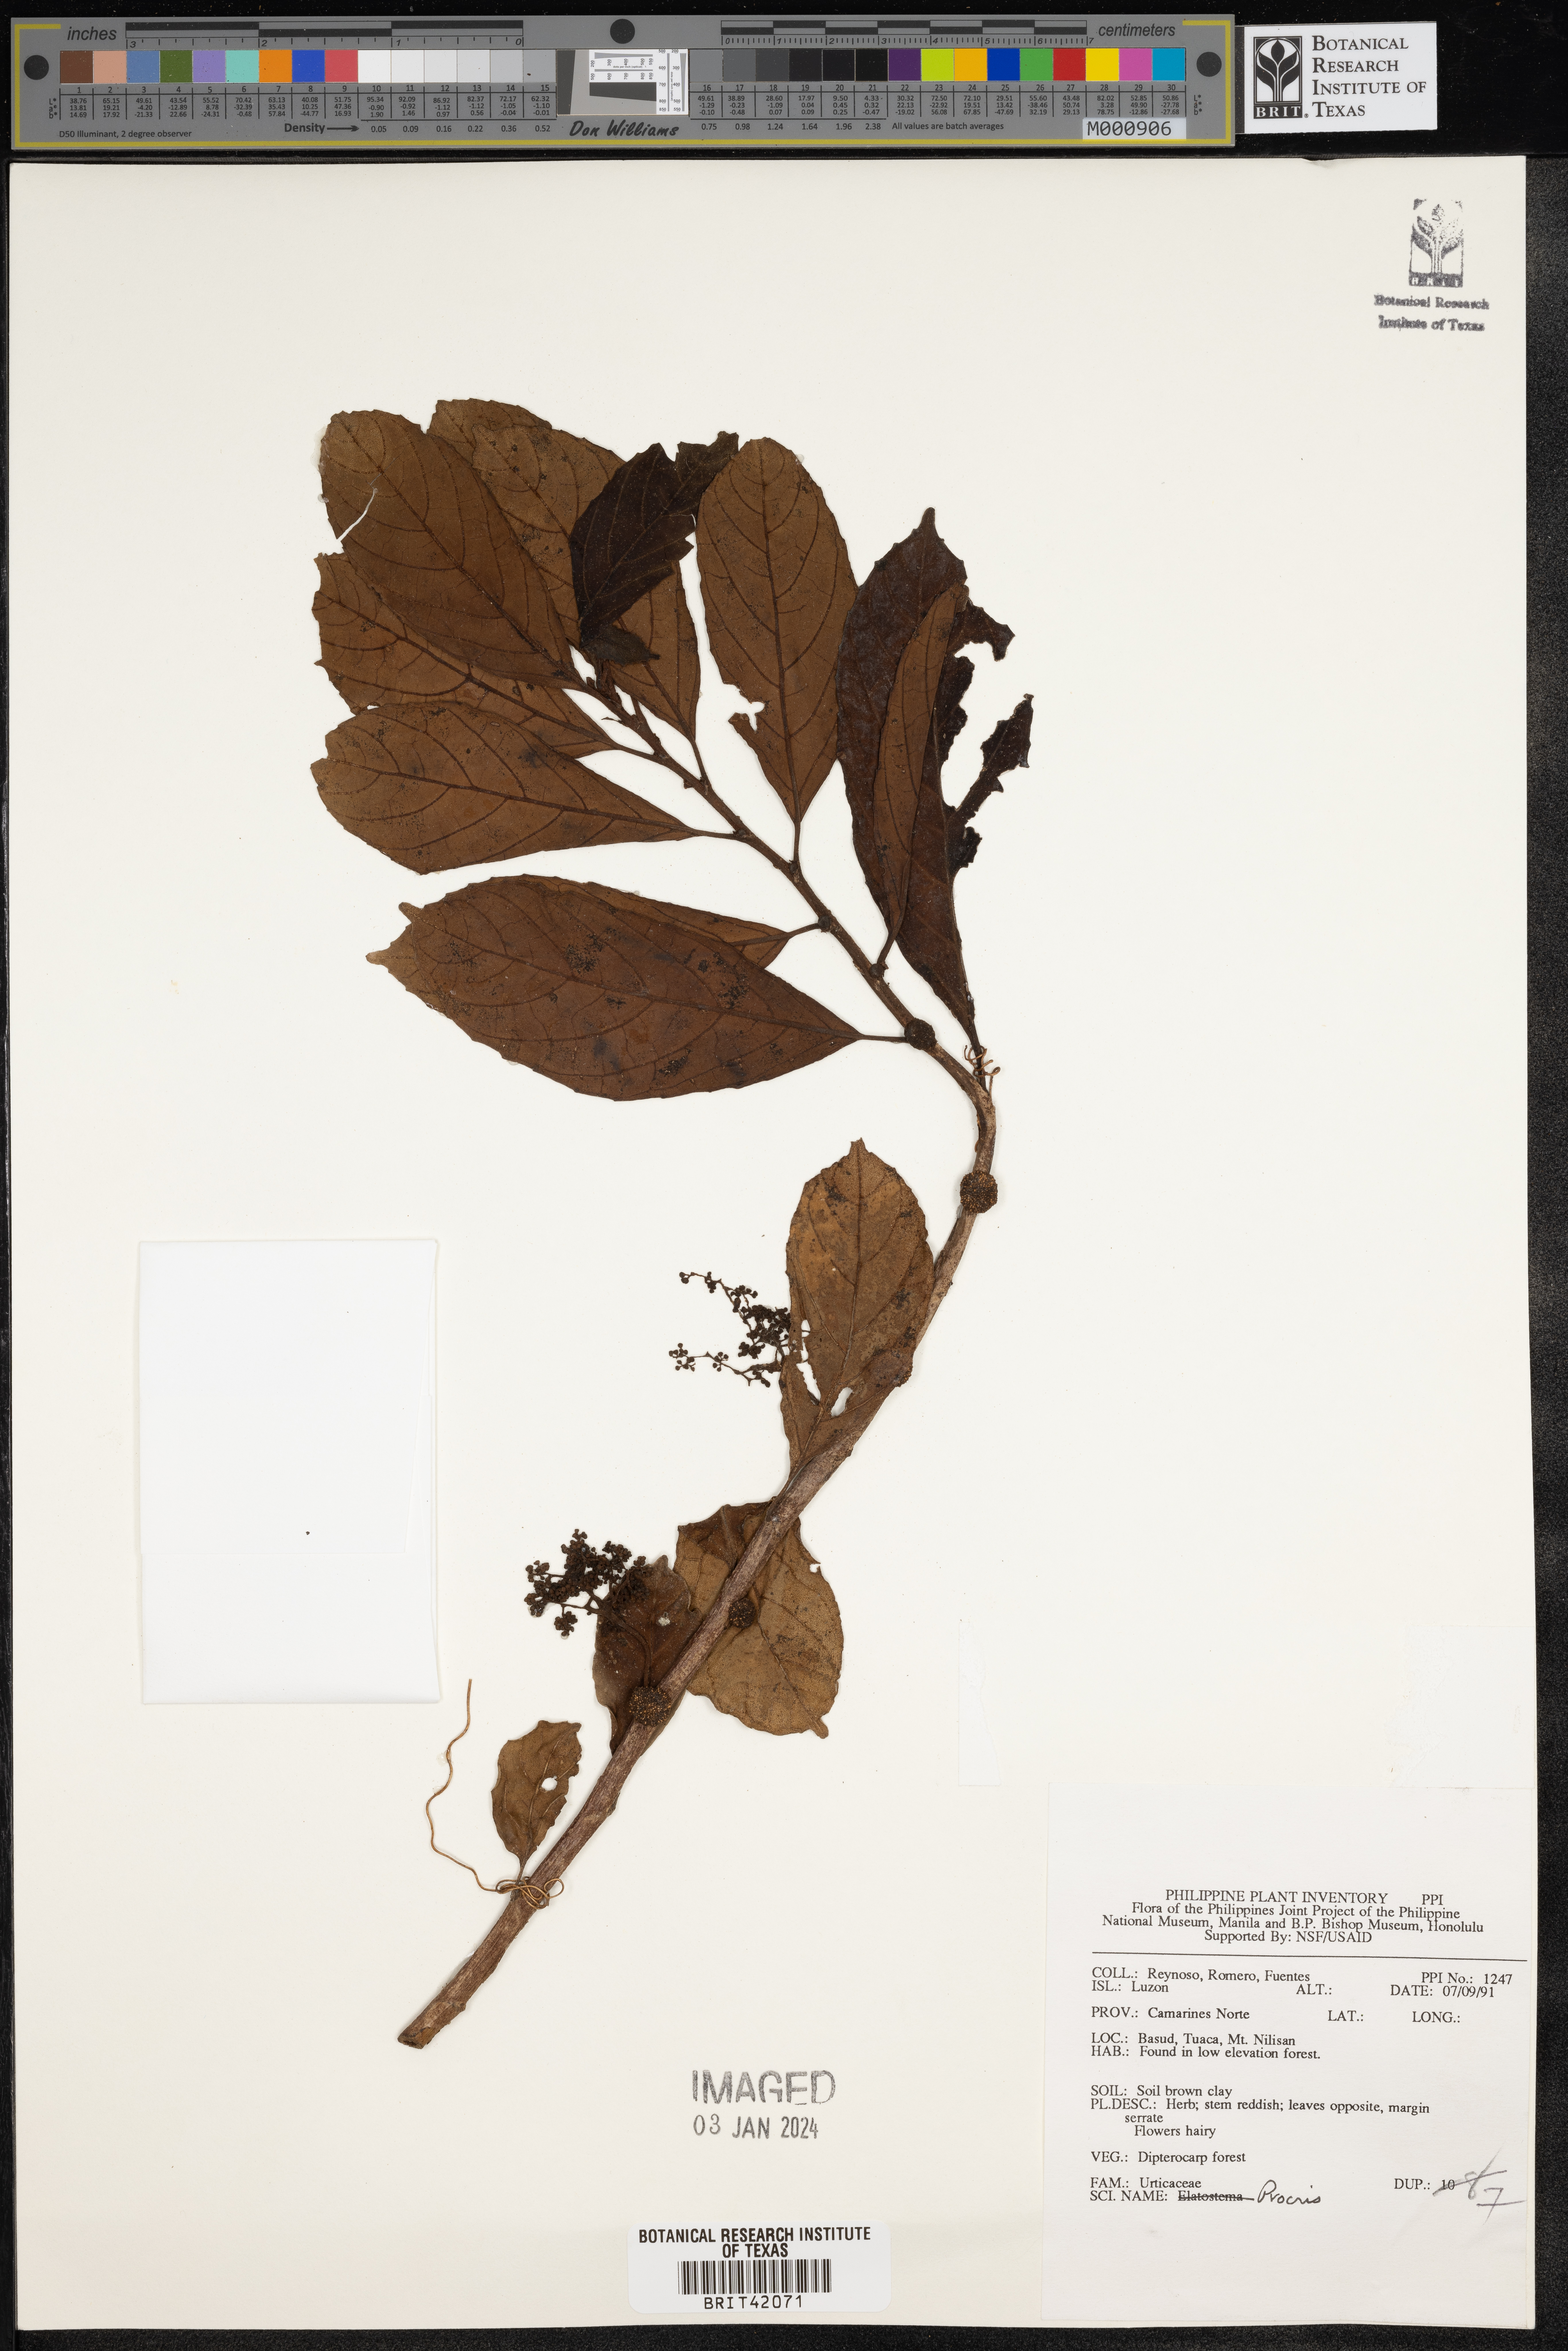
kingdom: Plantae
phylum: Tracheophyta
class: Magnoliopsida
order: Rosales
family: Urticaceae
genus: Procris
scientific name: Procris
